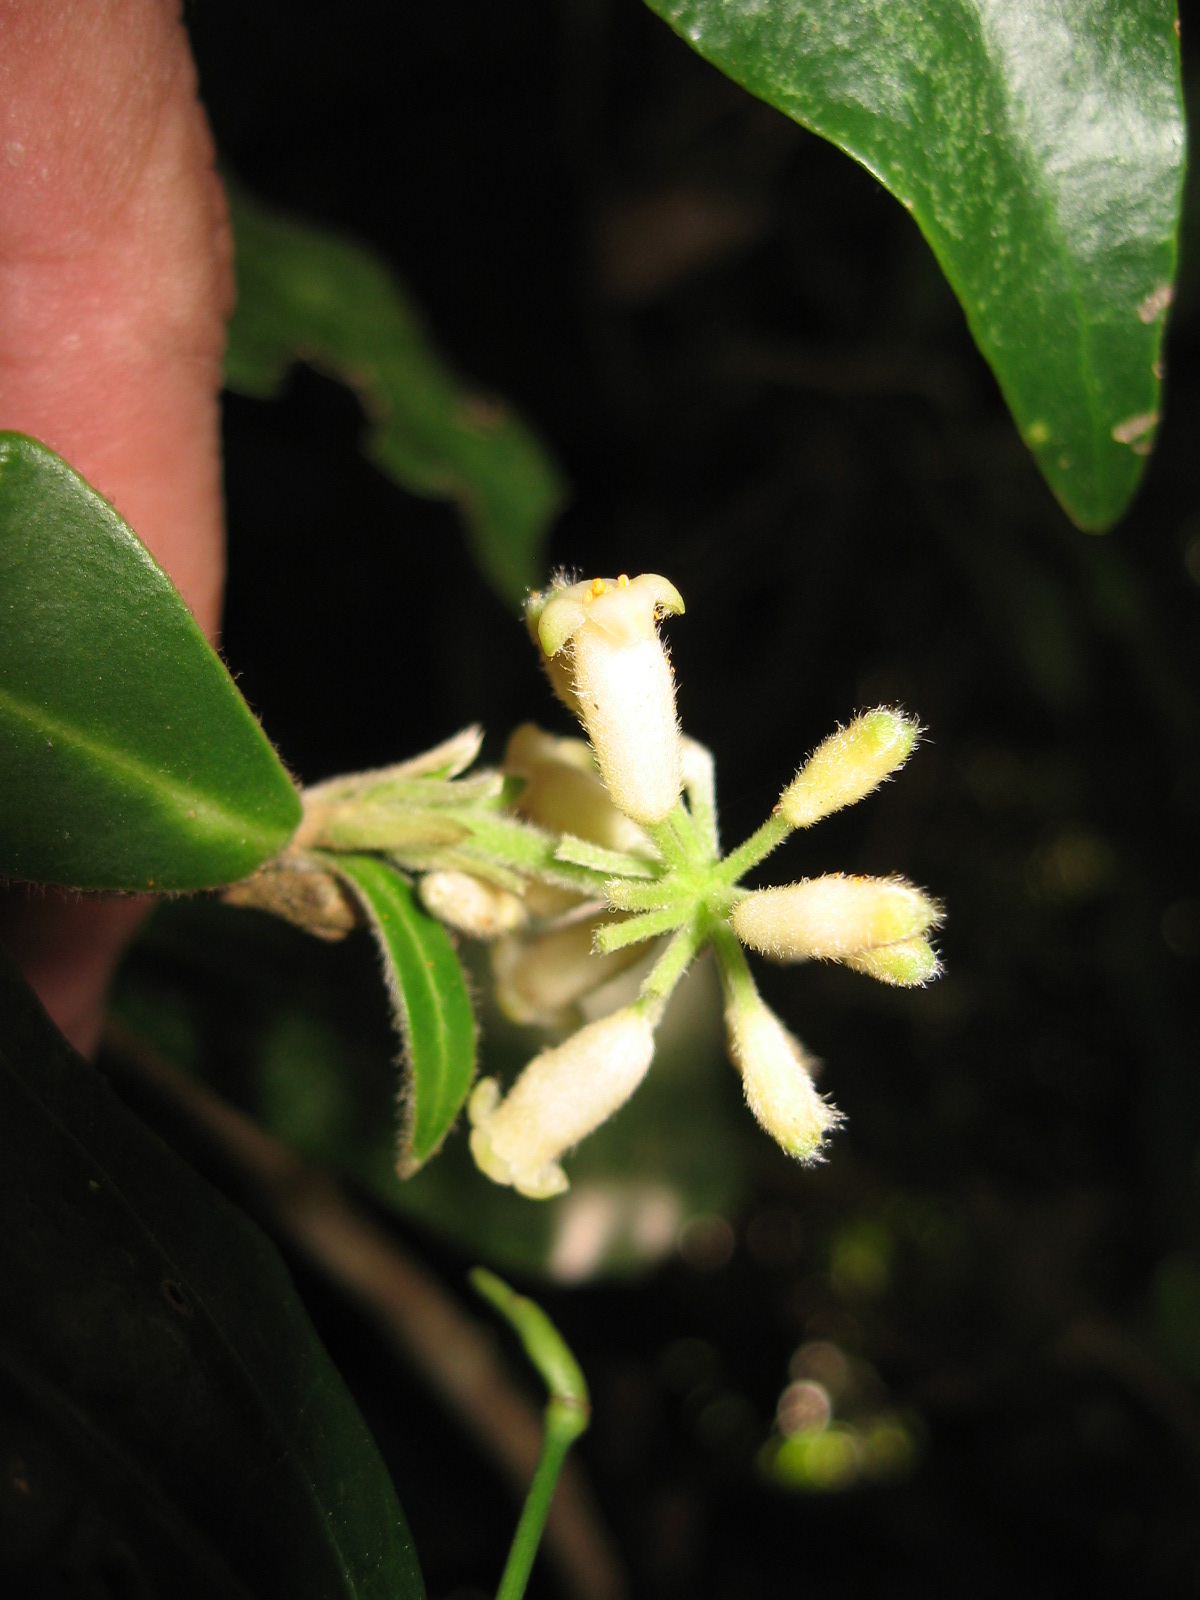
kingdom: Plantae
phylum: Tracheophyta
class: Magnoliopsida
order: Malvales
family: Thymelaeaceae
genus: Daphnopsis
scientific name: Daphnopsis selerorum
